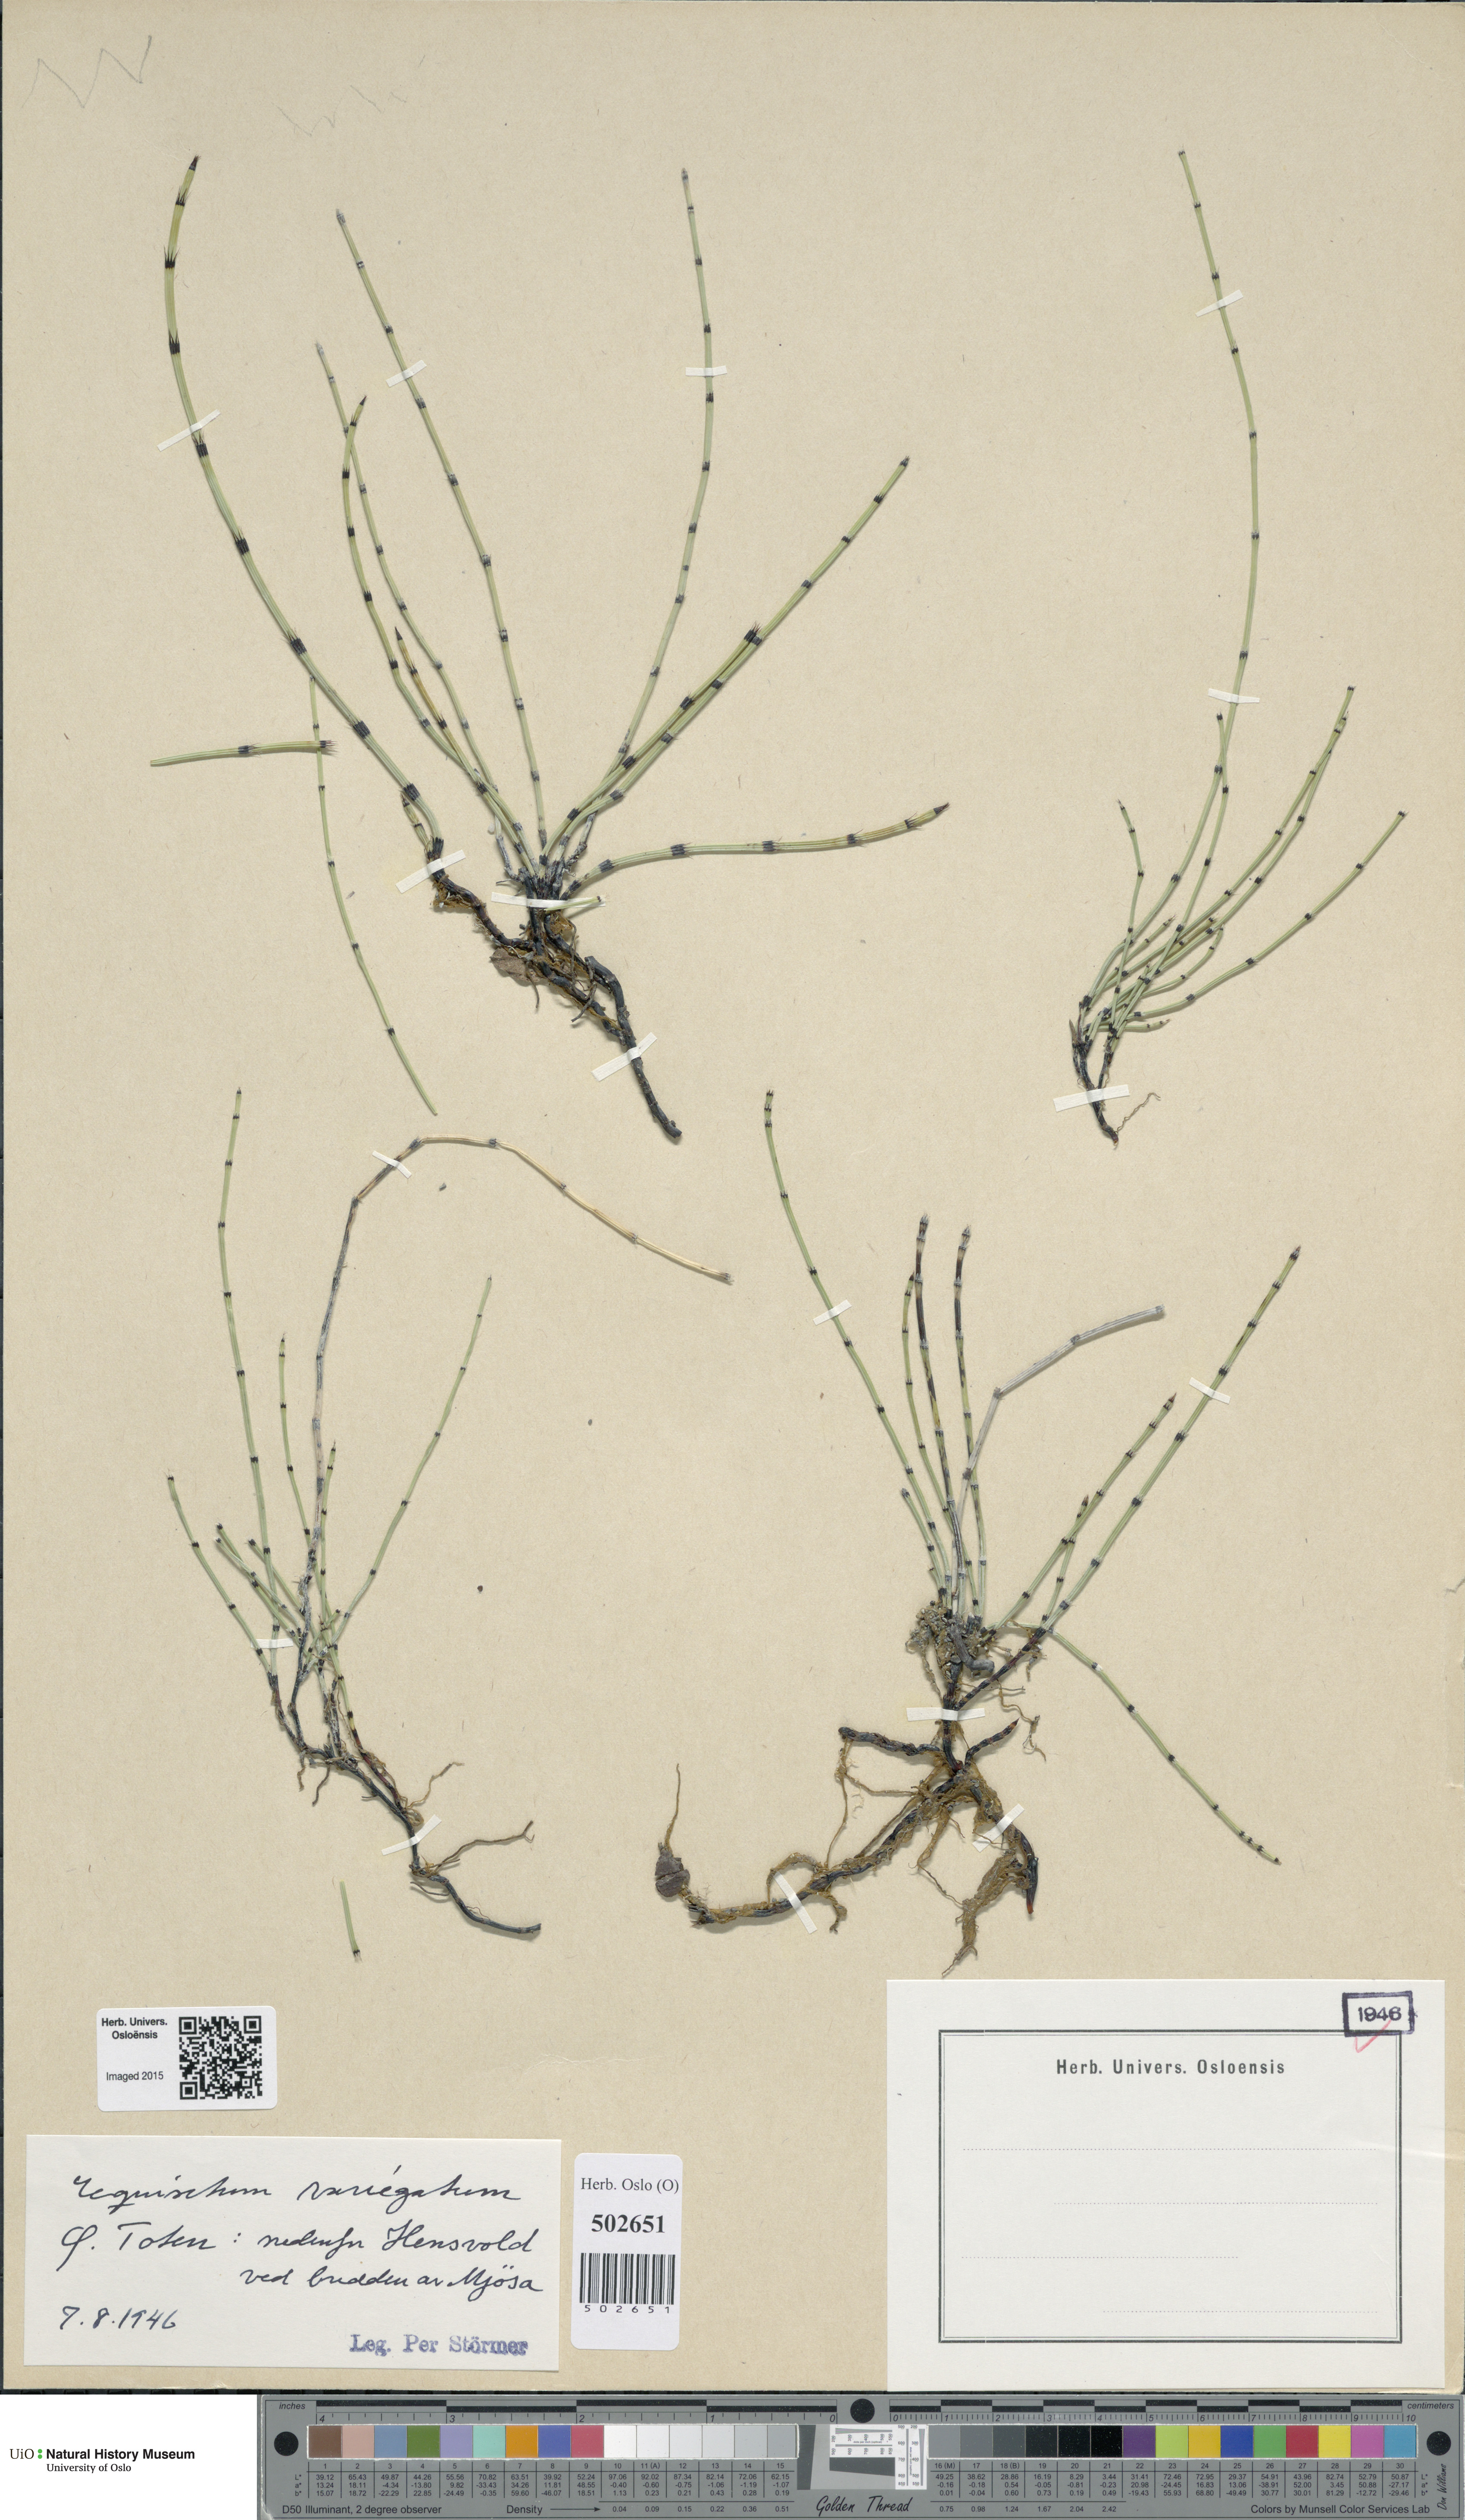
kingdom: Plantae
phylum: Tracheophyta
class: Polypodiopsida
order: Equisetales
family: Equisetaceae
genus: Equisetum
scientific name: Equisetum variegatum
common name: Variegated horsetail
